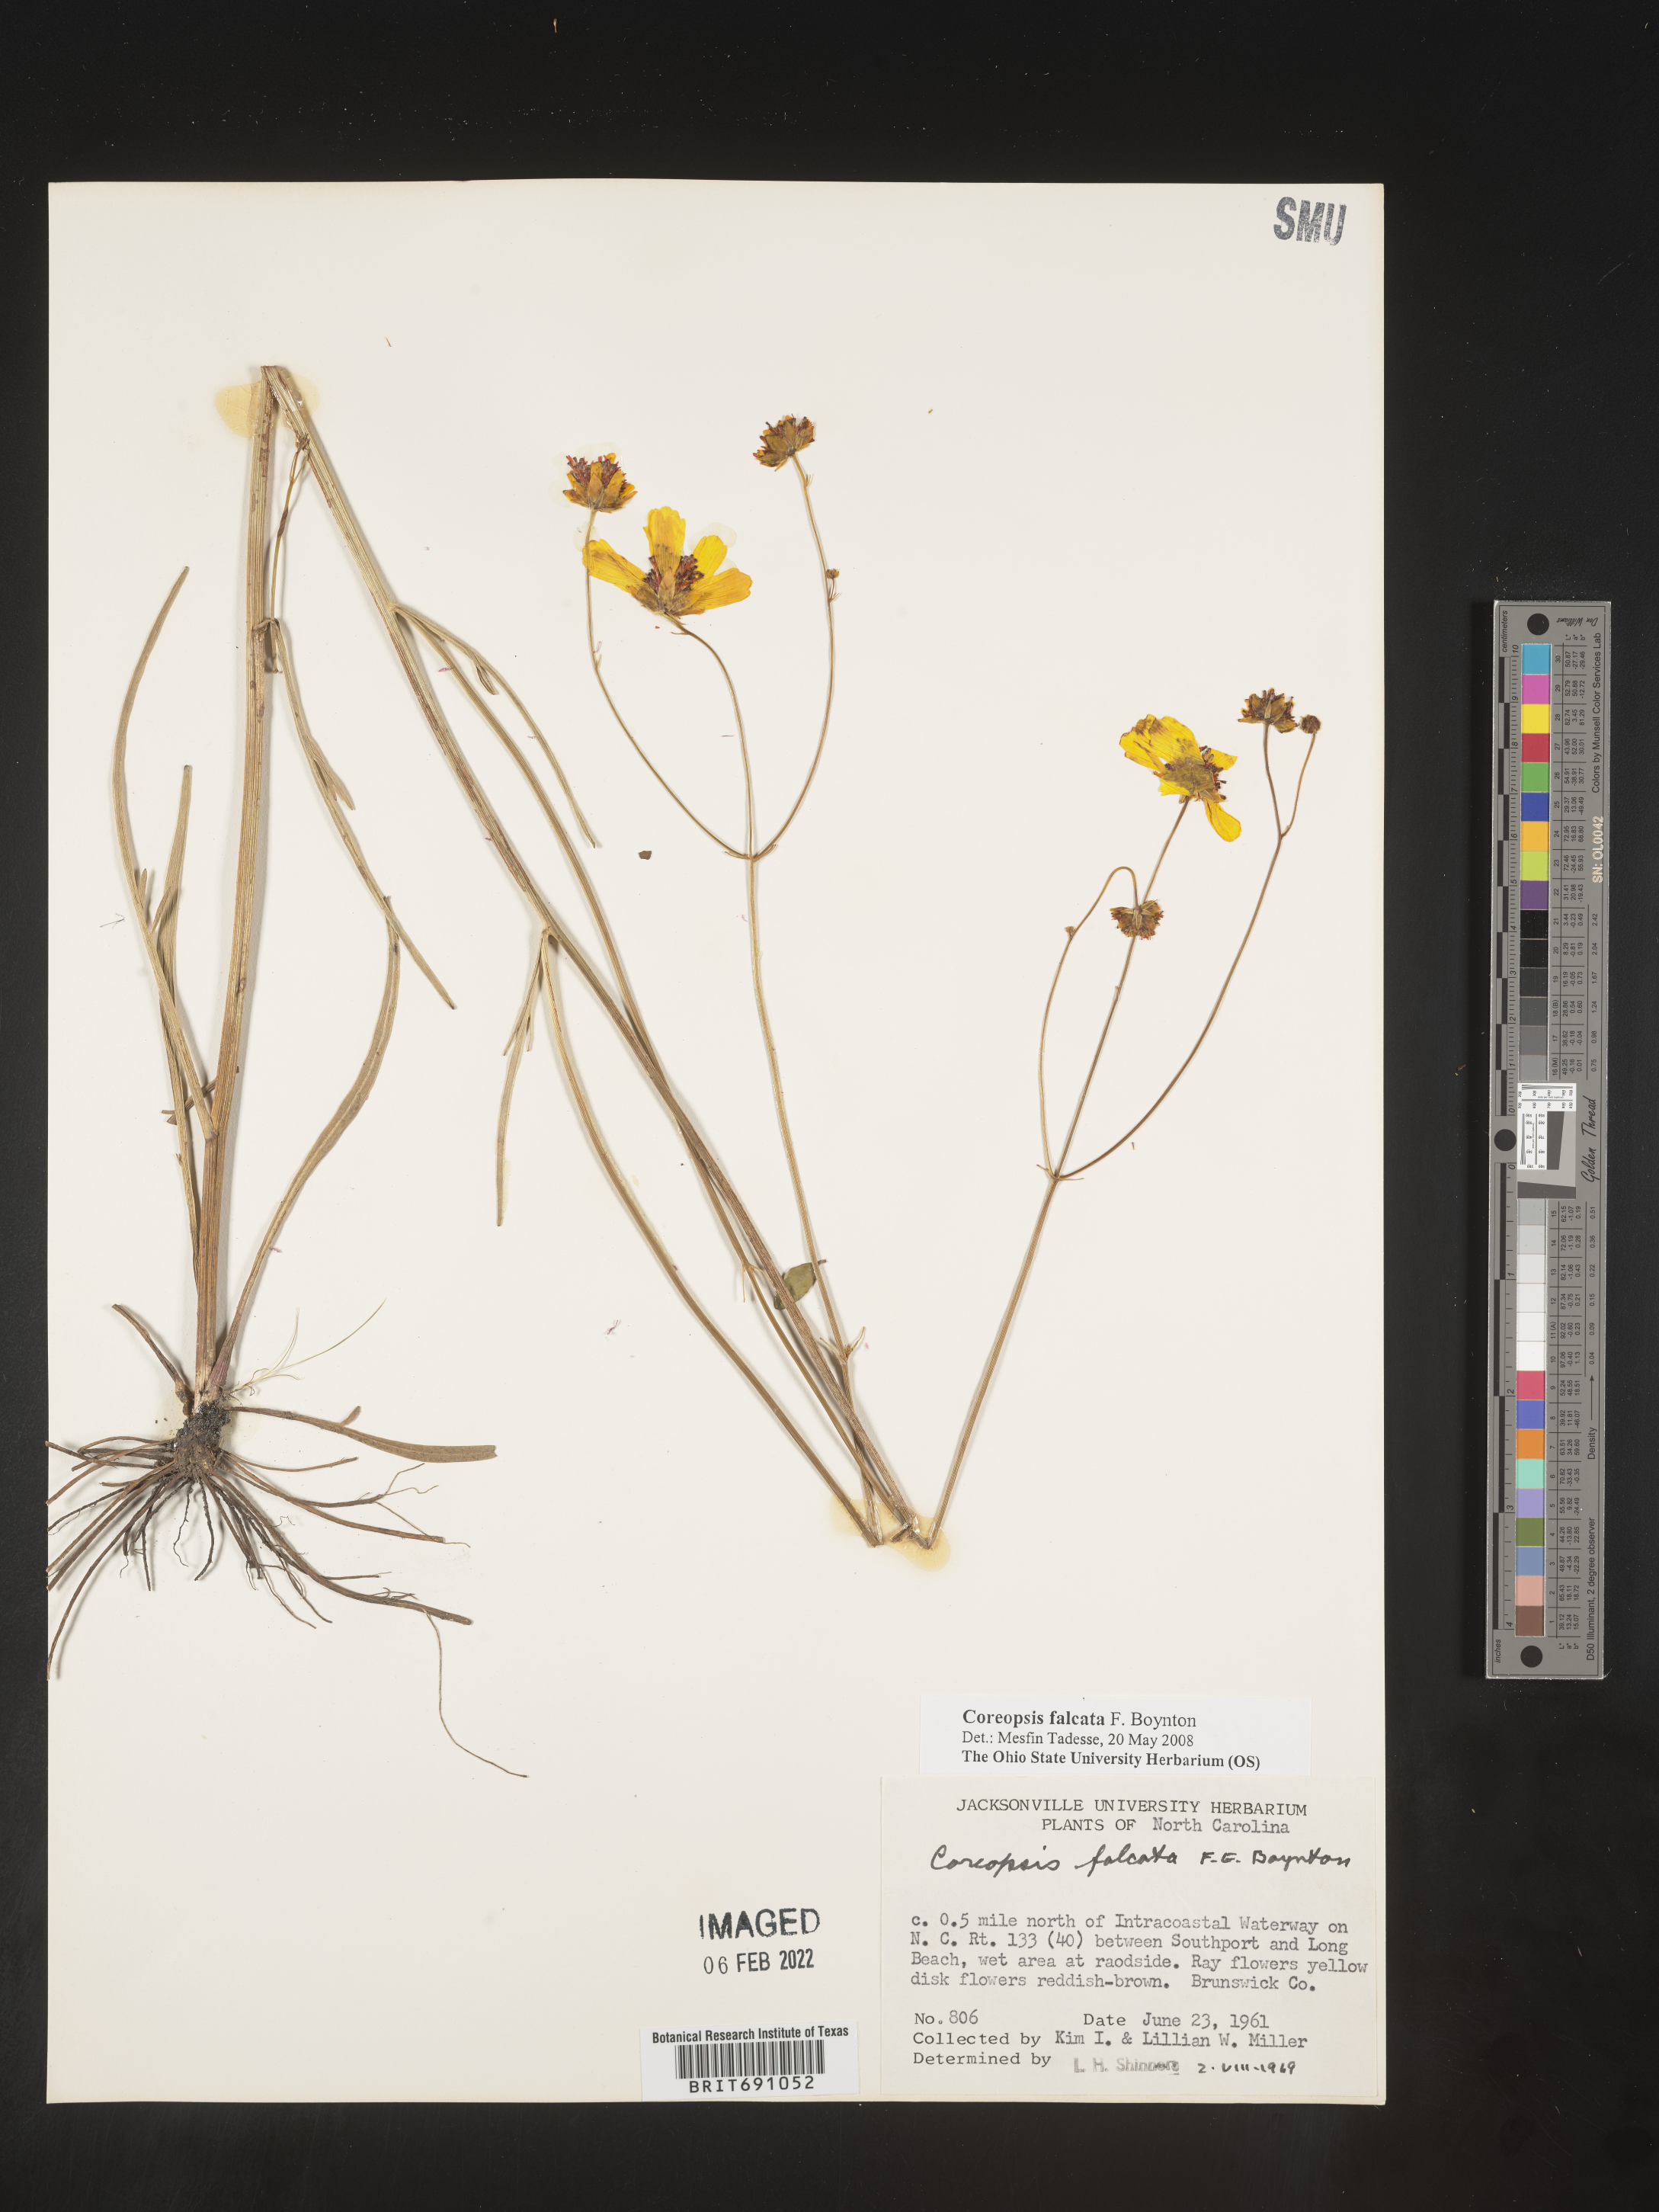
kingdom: Plantae
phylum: Tracheophyta
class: Magnoliopsida
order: Asterales
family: Asteraceae
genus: Coreopsis
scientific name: Coreopsis
